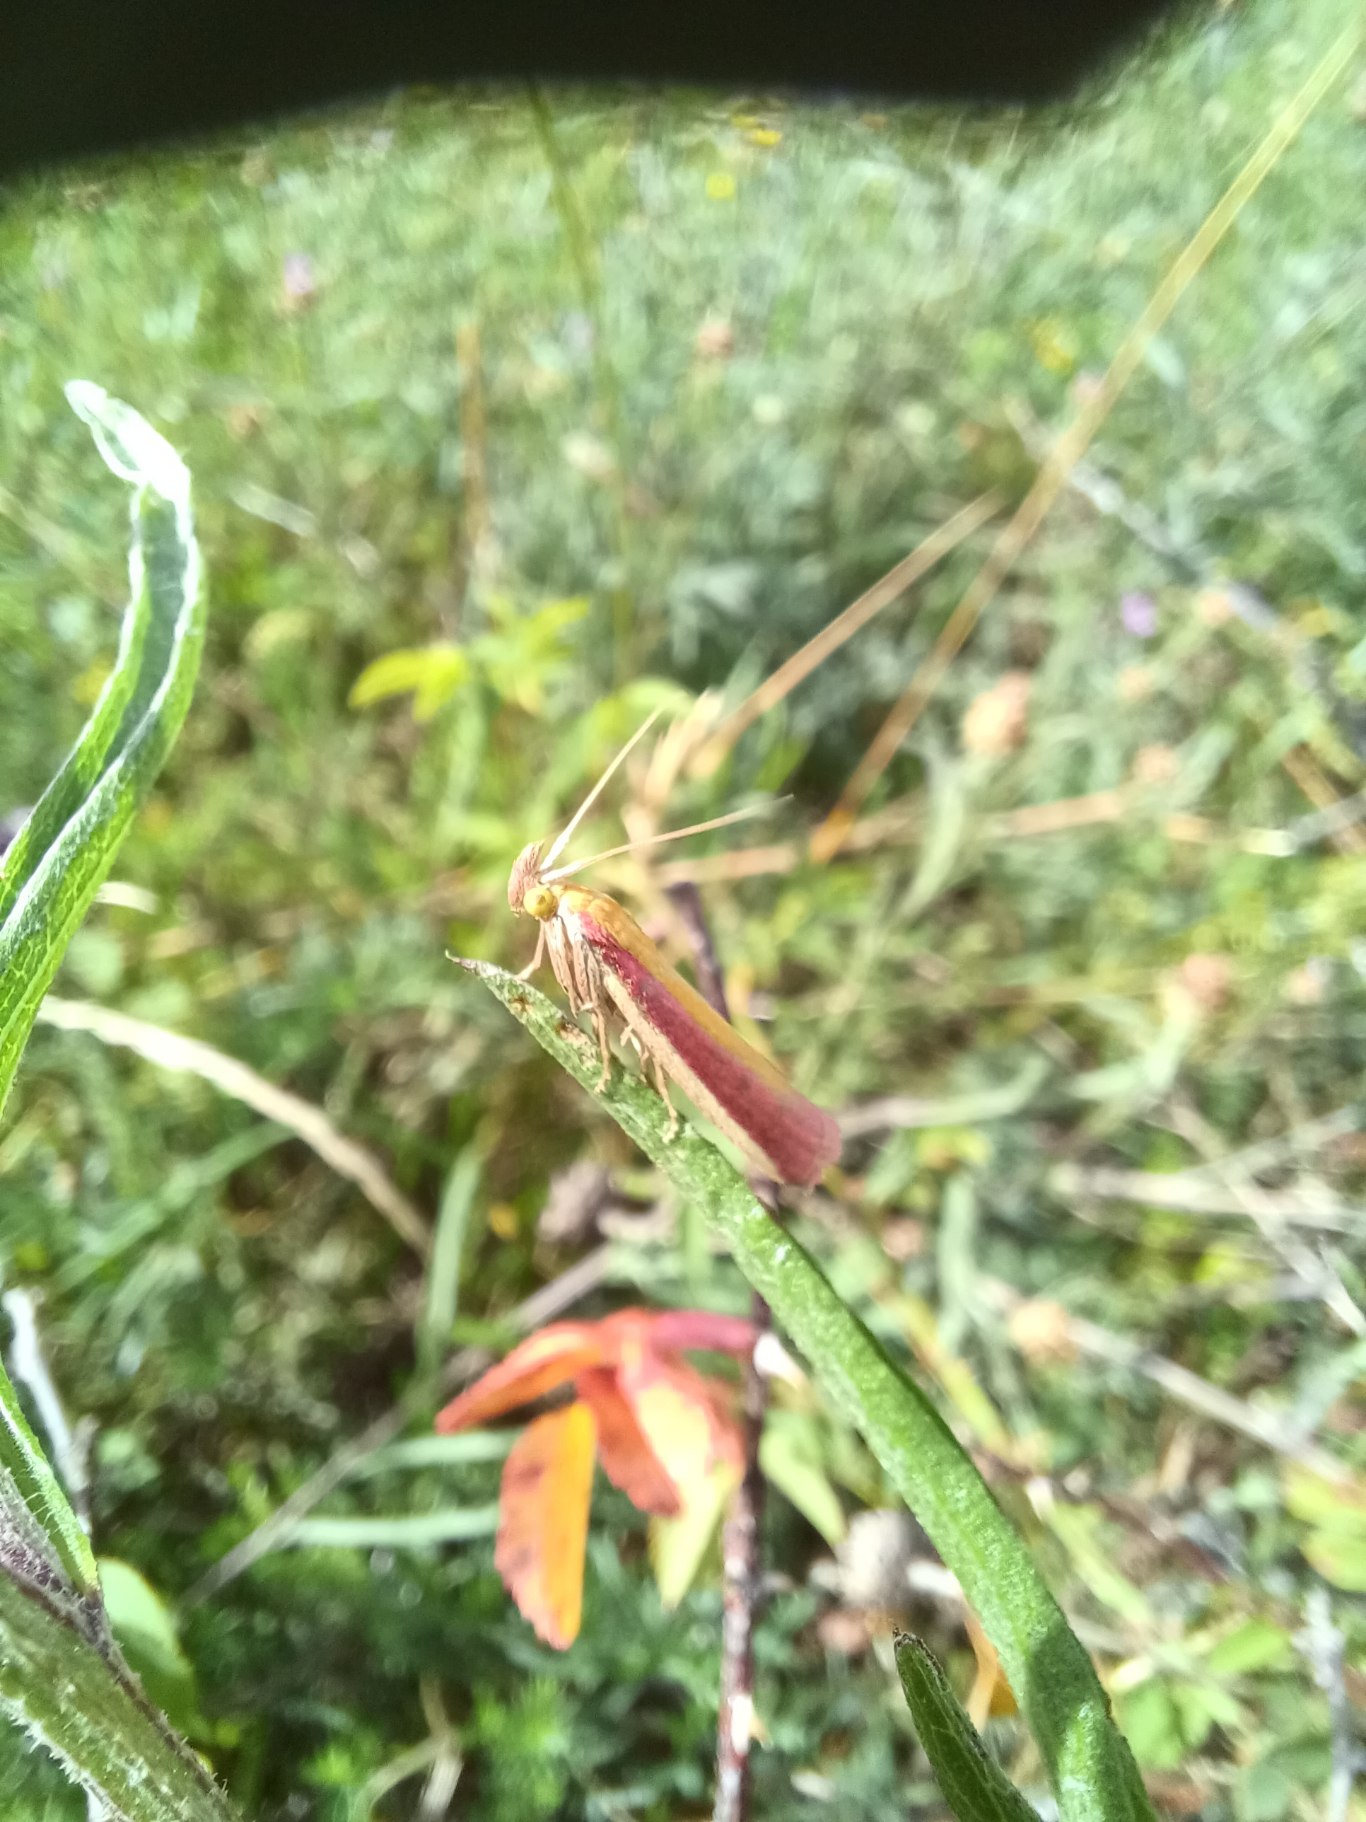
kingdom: Animalia
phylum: Arthropoda
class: Insecta
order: Lepidoptera
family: Pyralidae
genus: Oncocera
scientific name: Oncocera semirubella
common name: Kællingetandhalvmøl
